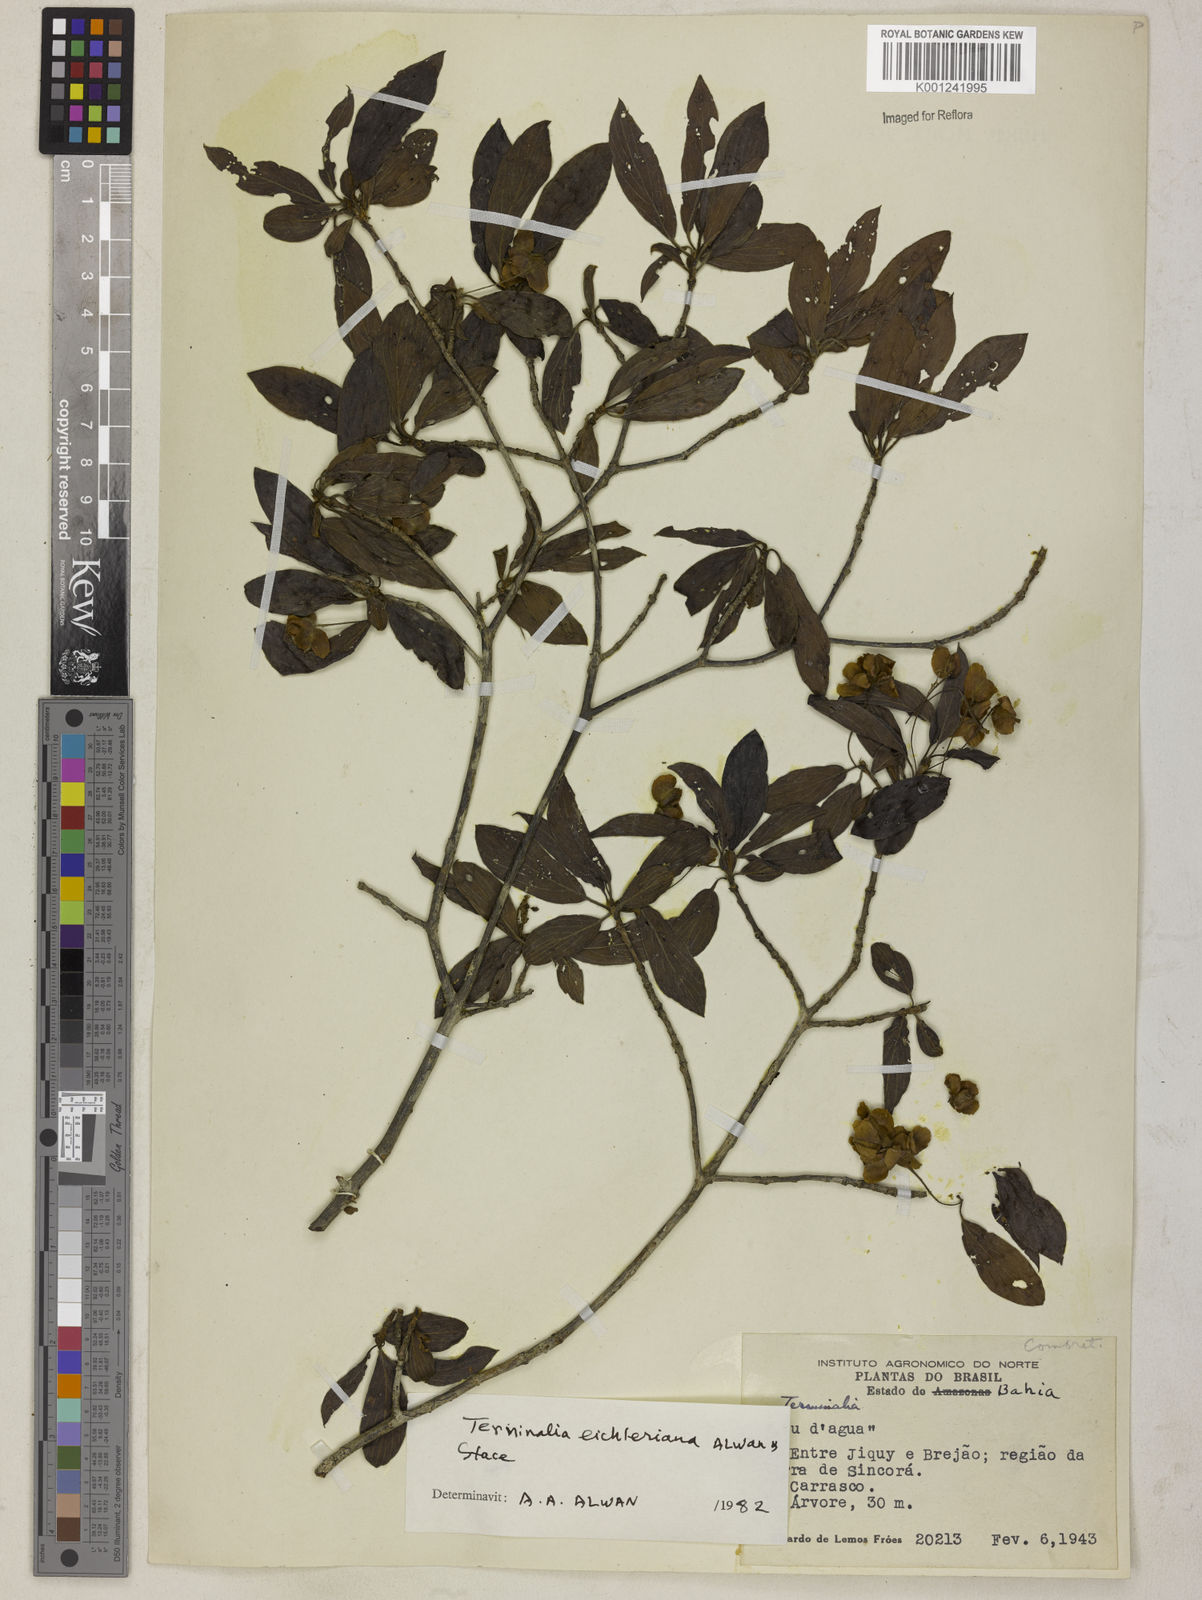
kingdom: Plantae
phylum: Tracheophyta
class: Magnoliopsida
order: Myrtales
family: Combretaceae
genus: Terminalia
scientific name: Terminalia eichleriana
